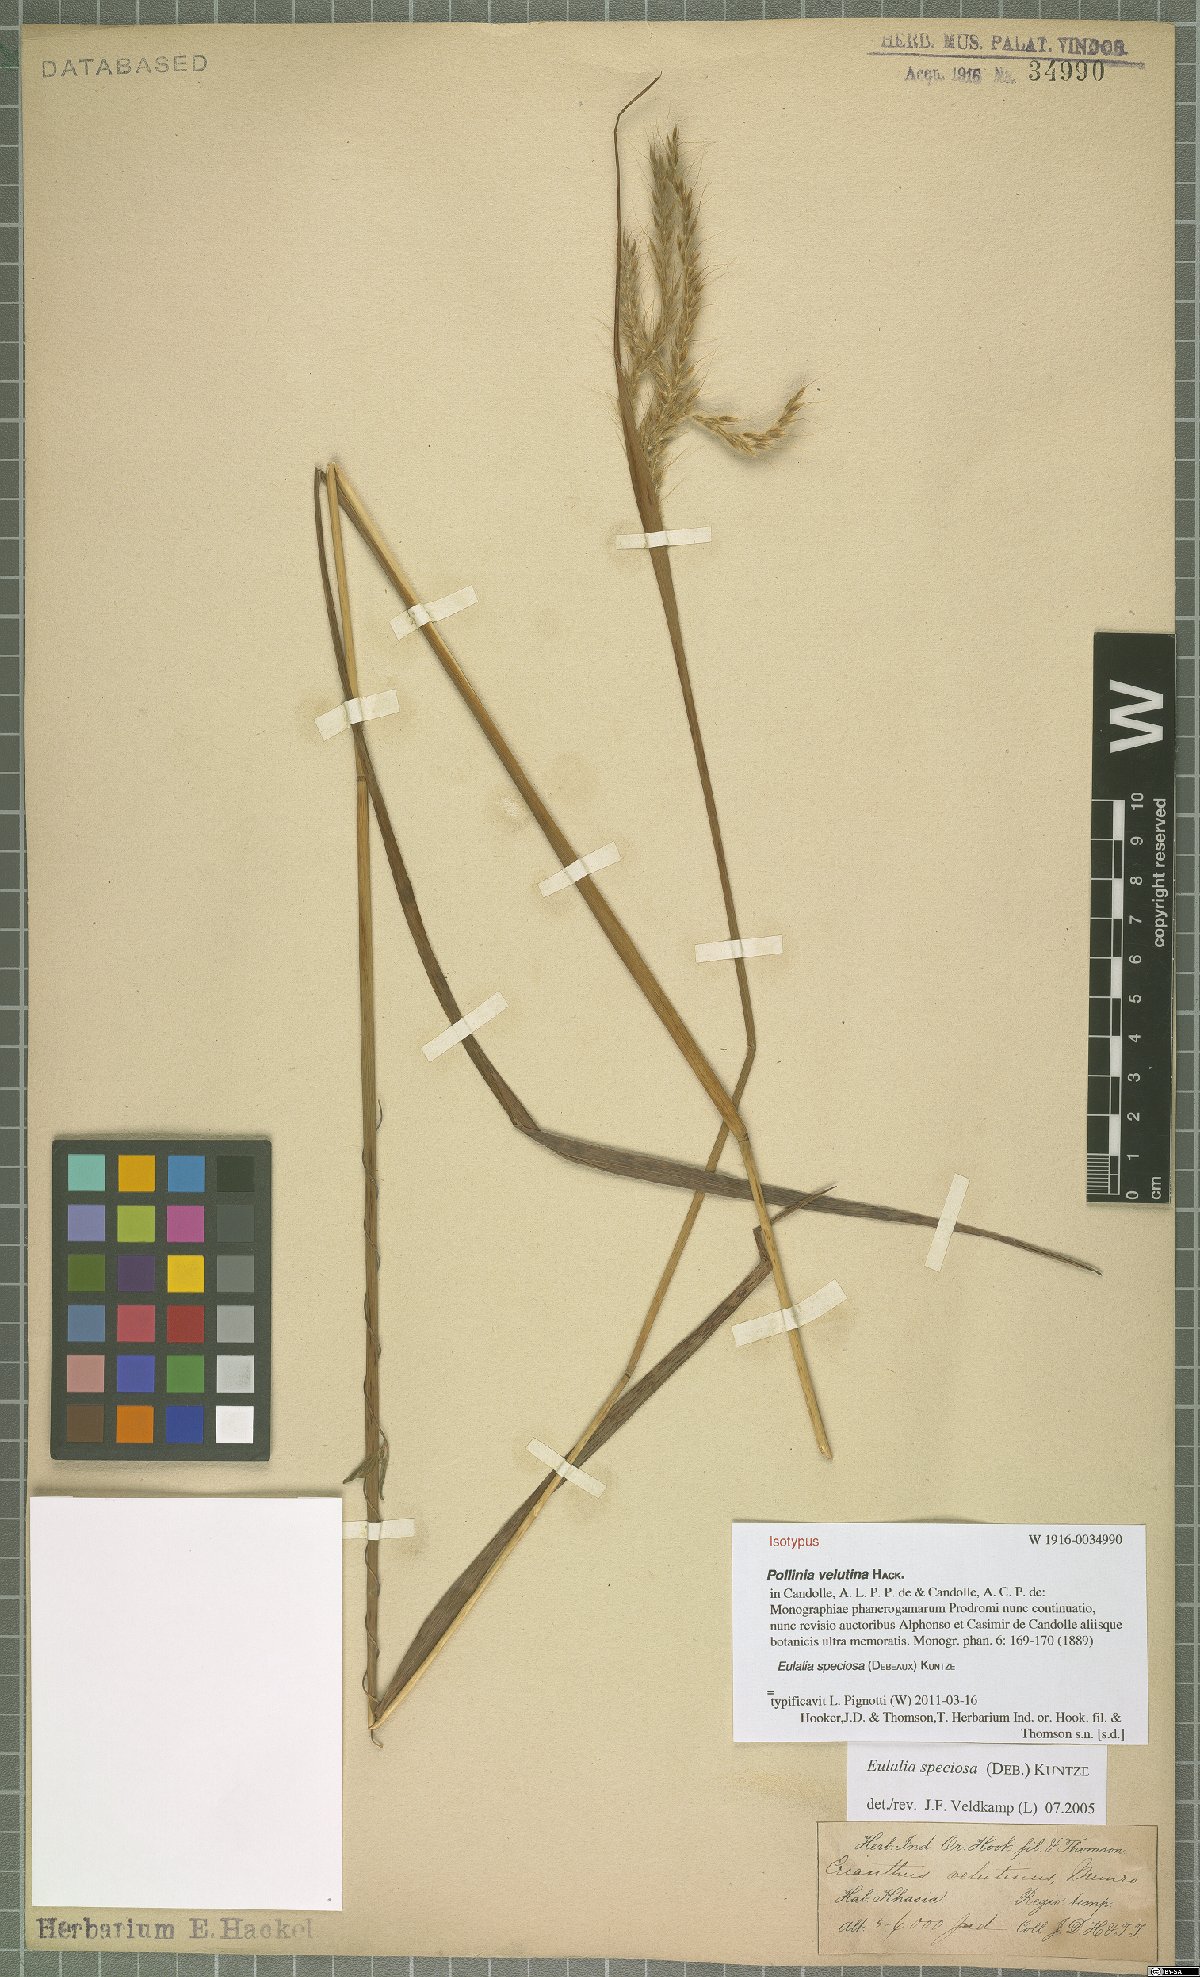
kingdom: Plantae
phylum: Tracheophyta
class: Liliopsida
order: Poales
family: Poaceae
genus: Pseudopogonatherum
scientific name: Pseudopogonatherum speciosum
